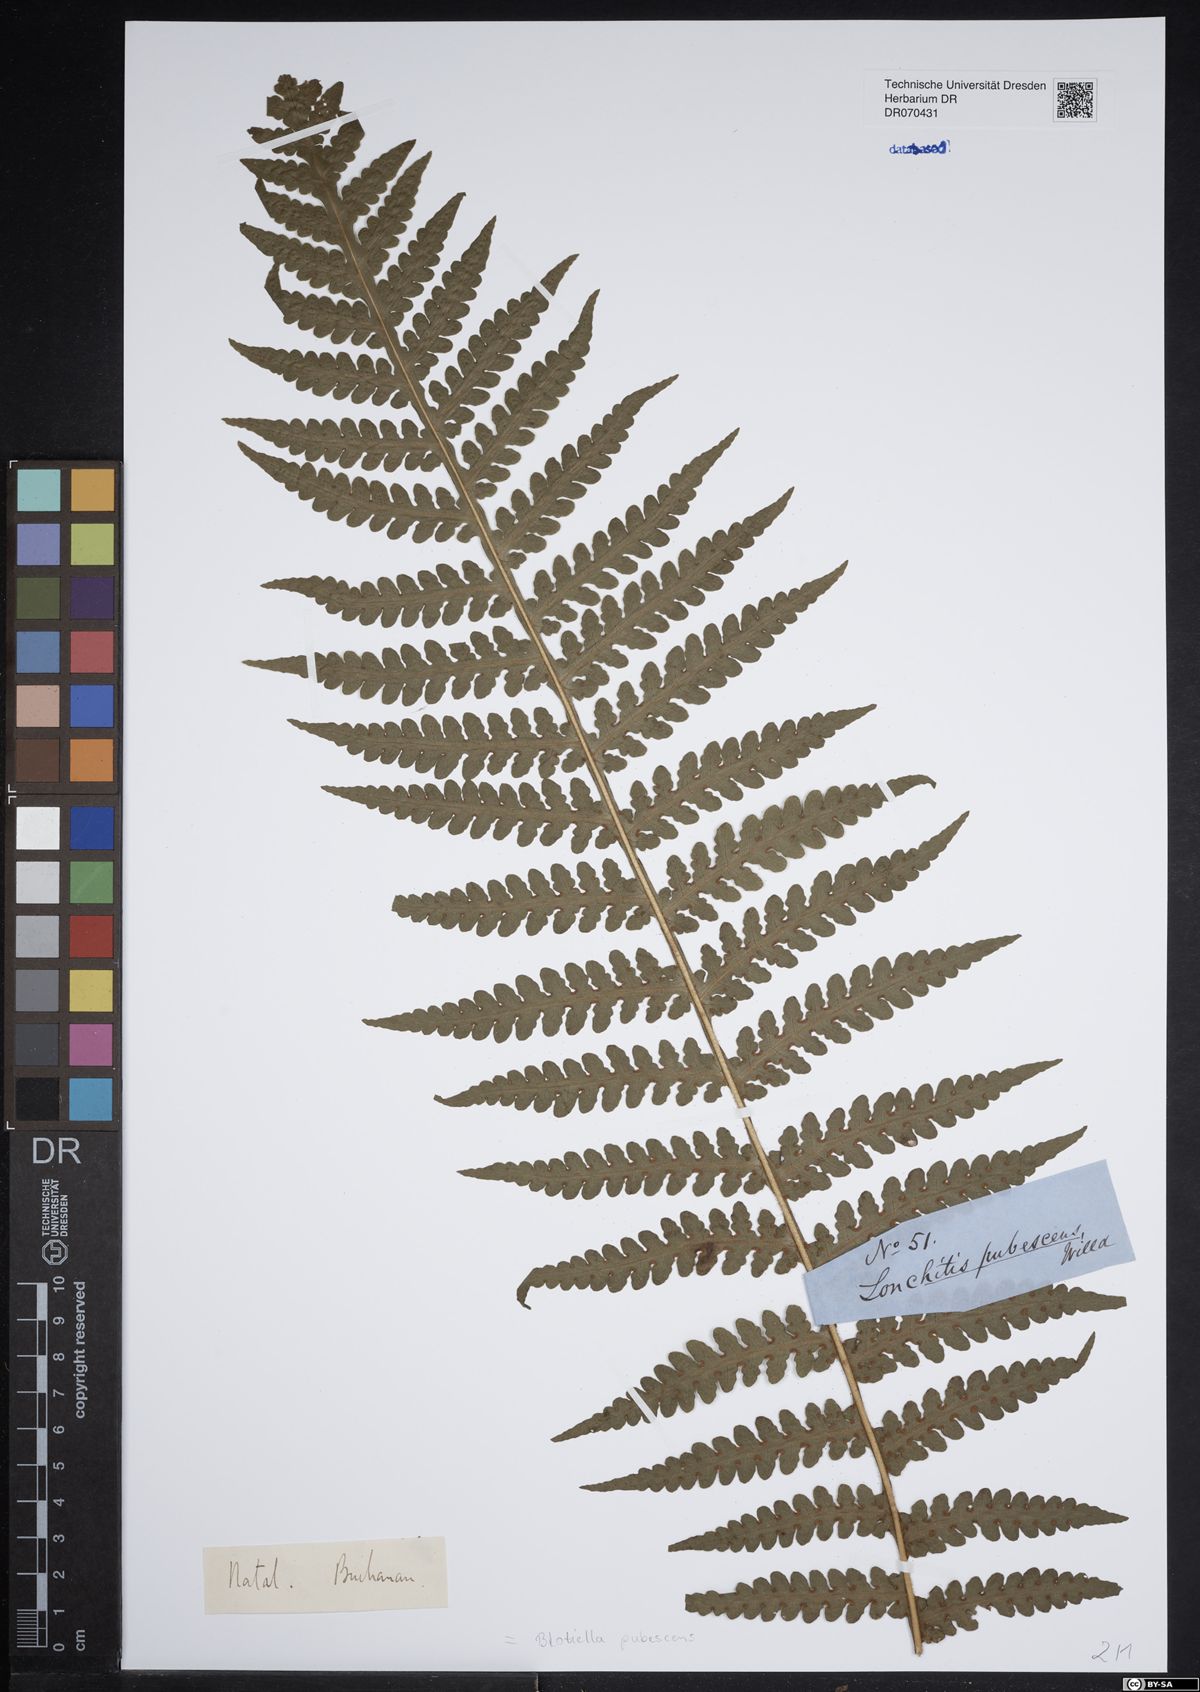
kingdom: Plantae
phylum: Tracheophyta
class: Polypodiopsida
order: Polypodiales
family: Dennstaedtiaceae
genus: Blotiella
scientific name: Blotiella pubescens
